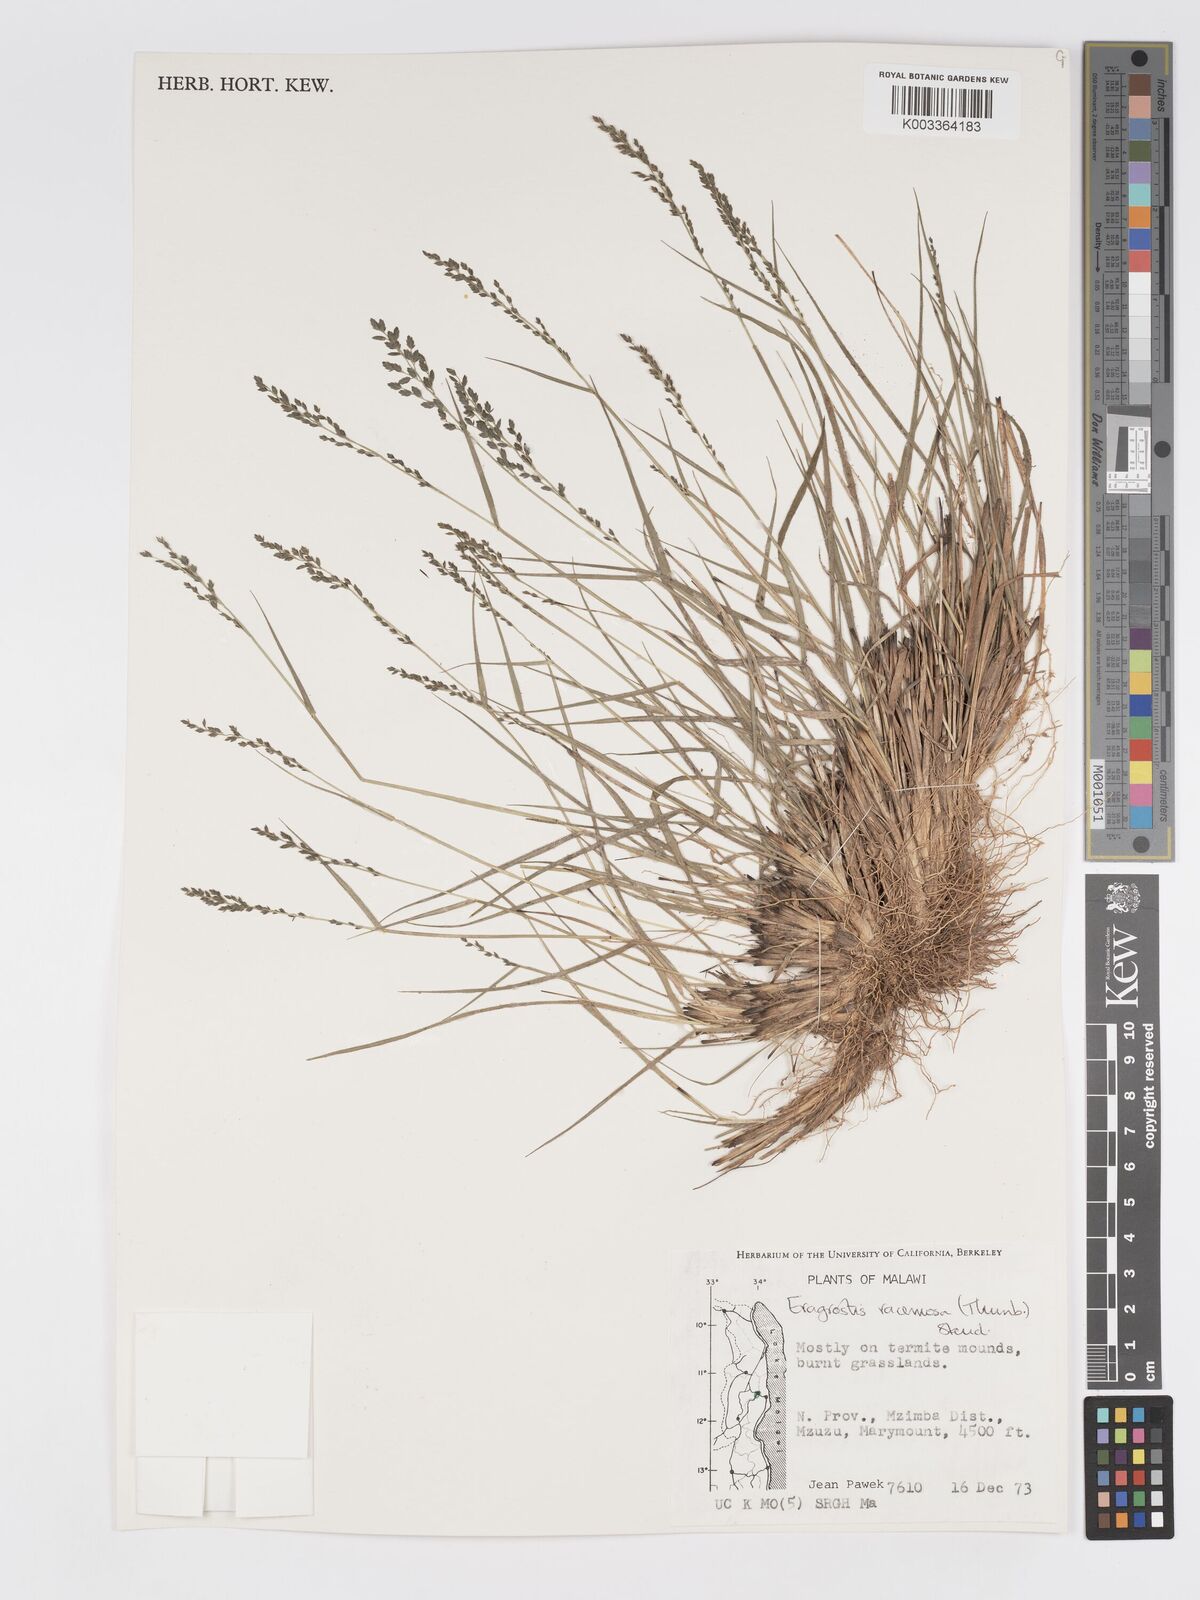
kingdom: Plantae
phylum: Tracheophyta
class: Liliopsida
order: Poales
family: Poaceae
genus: Eragrostis
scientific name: Eragrostis racemosa
